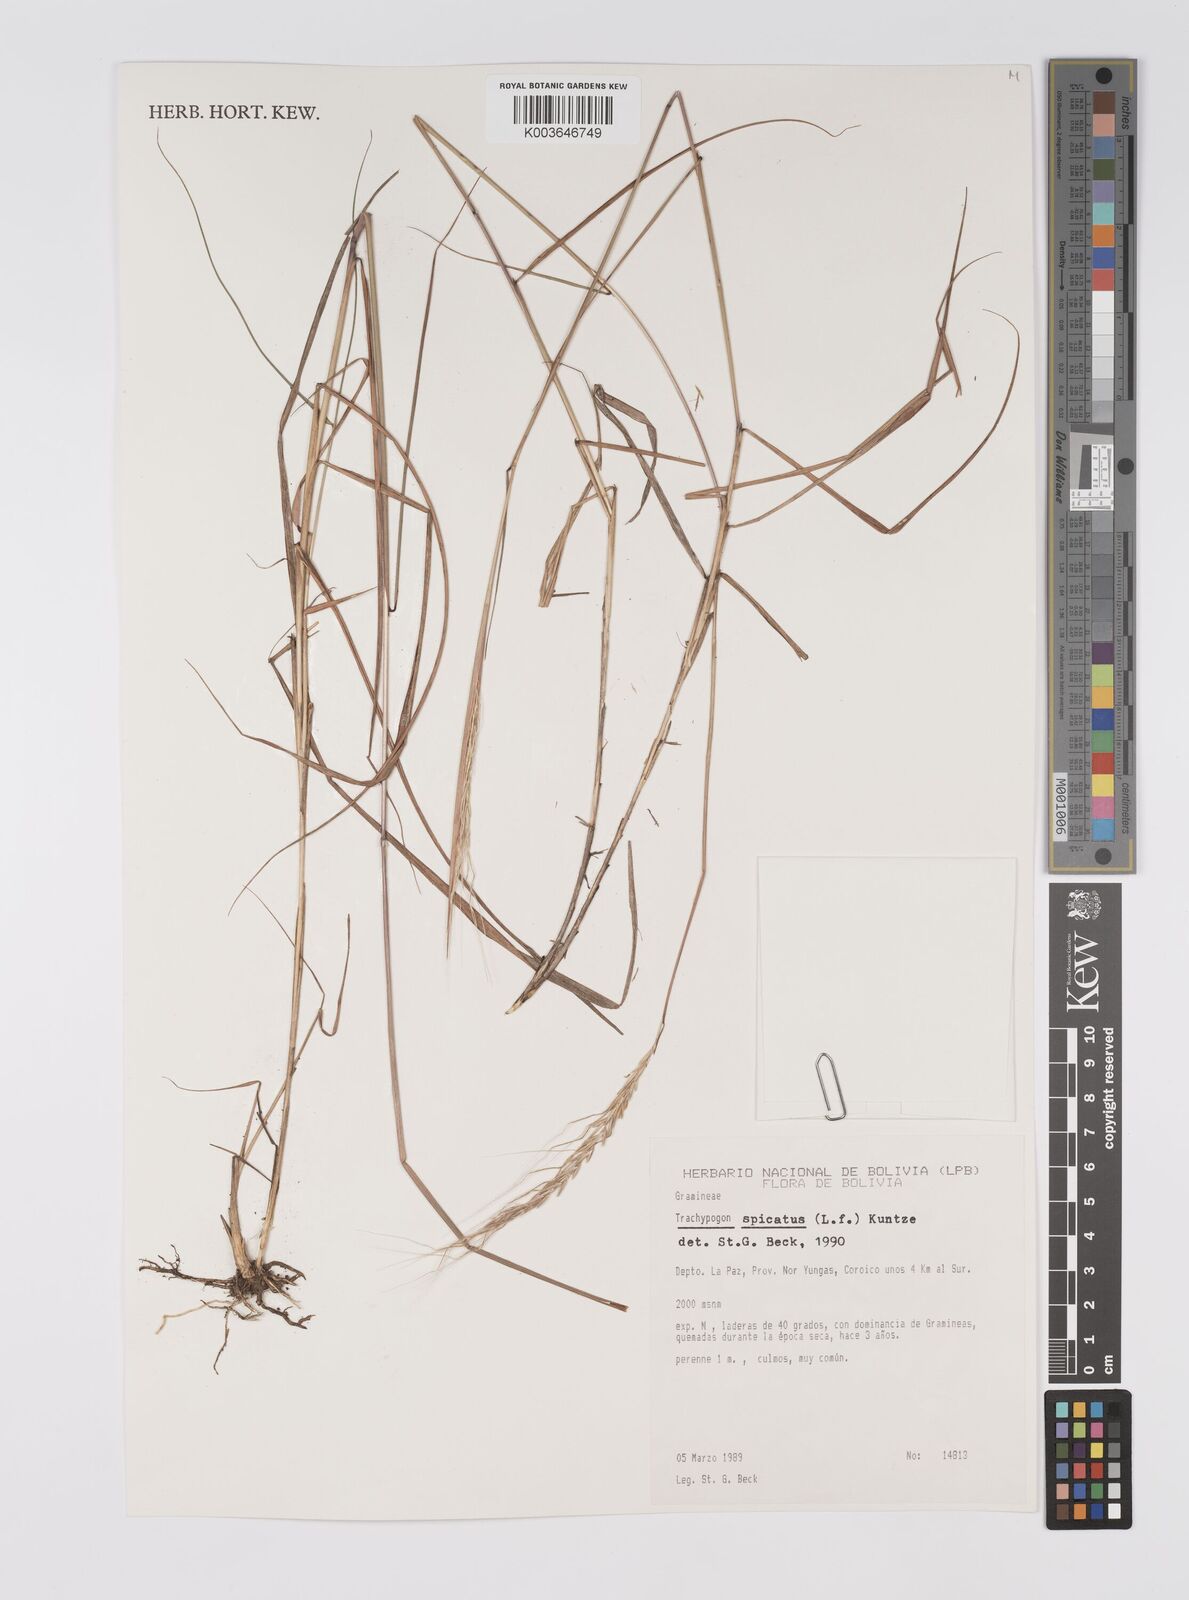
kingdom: Plantae
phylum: Tracheophyta
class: Liliopsida
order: Poales
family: Poaceae
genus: Trachypogon
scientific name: Trachypogon spicatus
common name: Crinkle-awn
